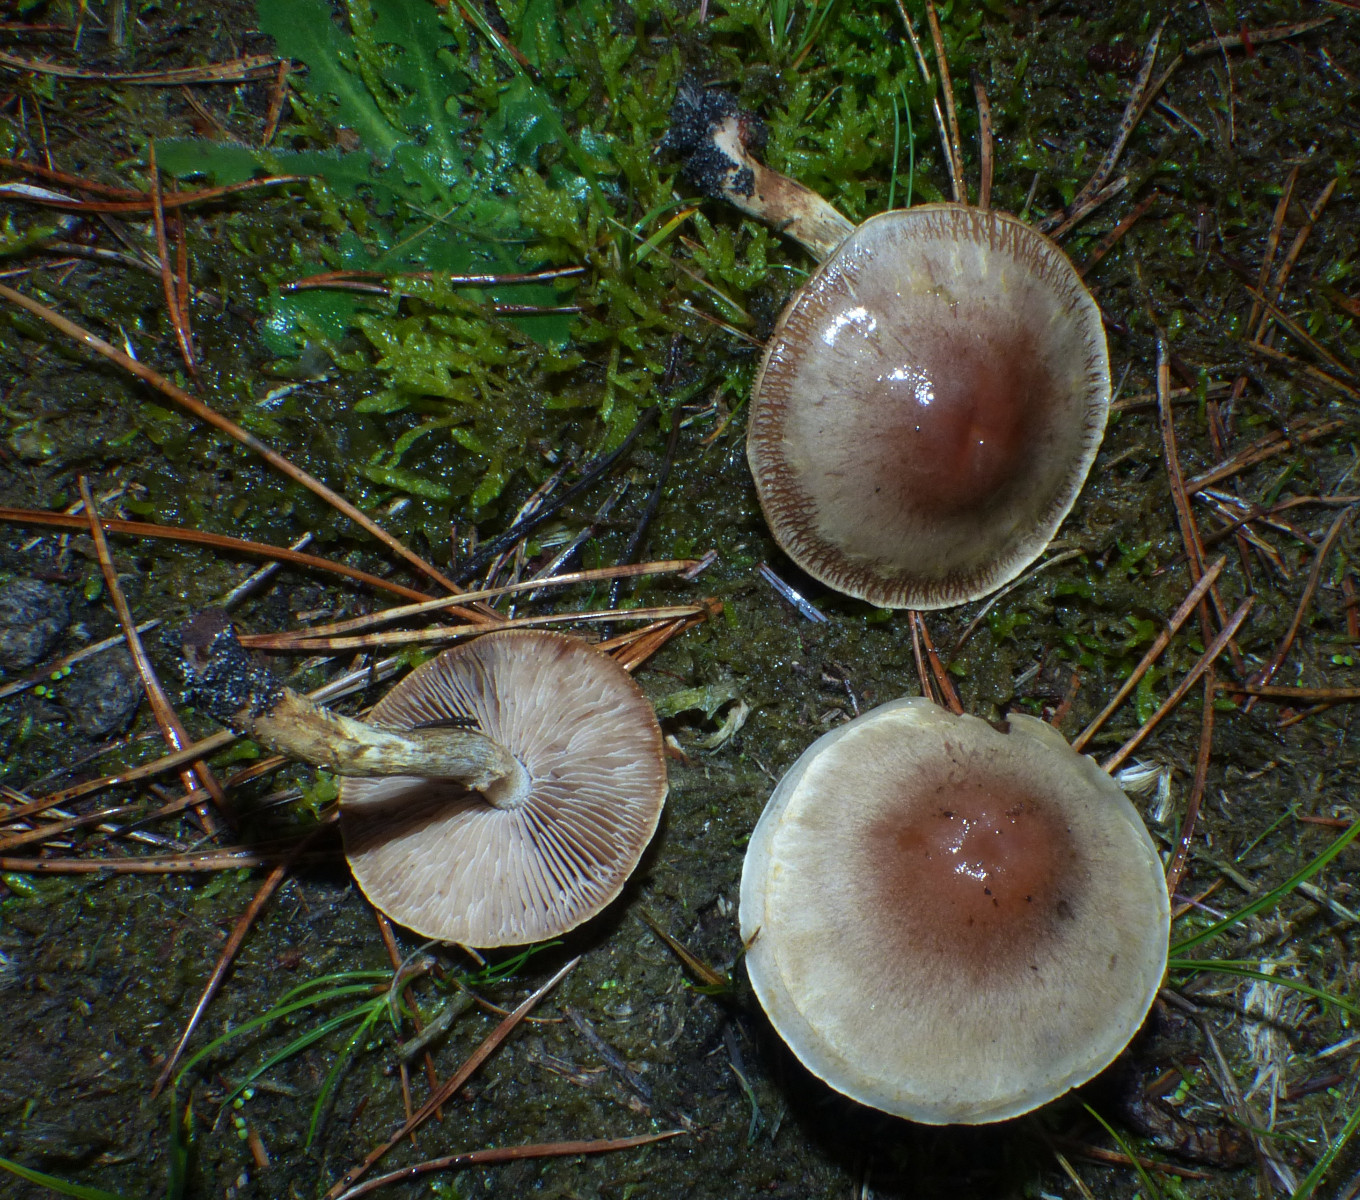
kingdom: Fungi
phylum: Basidiomycota
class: Agaricomycetes
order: Agaricales
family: Hymenogastraceae
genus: Hebeloma
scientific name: Hebeloma
